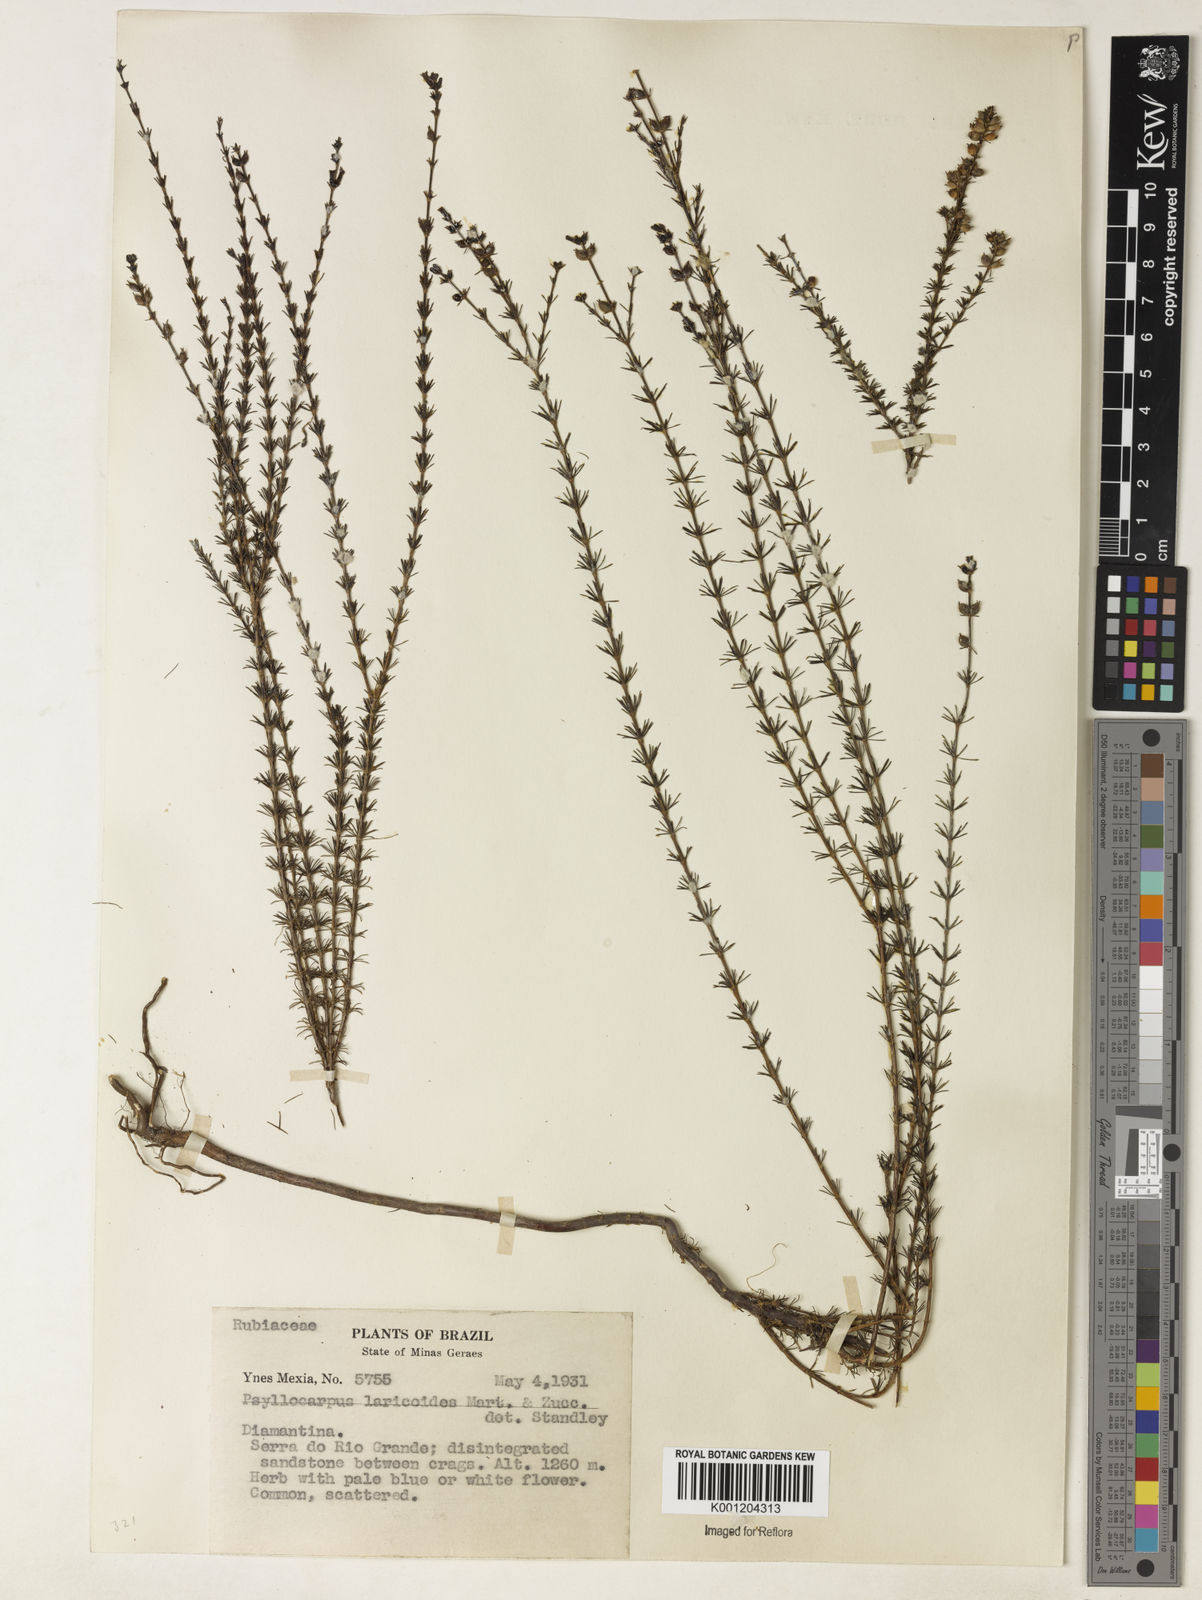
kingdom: Plantae
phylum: Tracheophyta
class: Magnoliopsida
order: Gentianales
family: Rubiaceae
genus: Psyllocarpus
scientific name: Psyllocarpus laricoides
